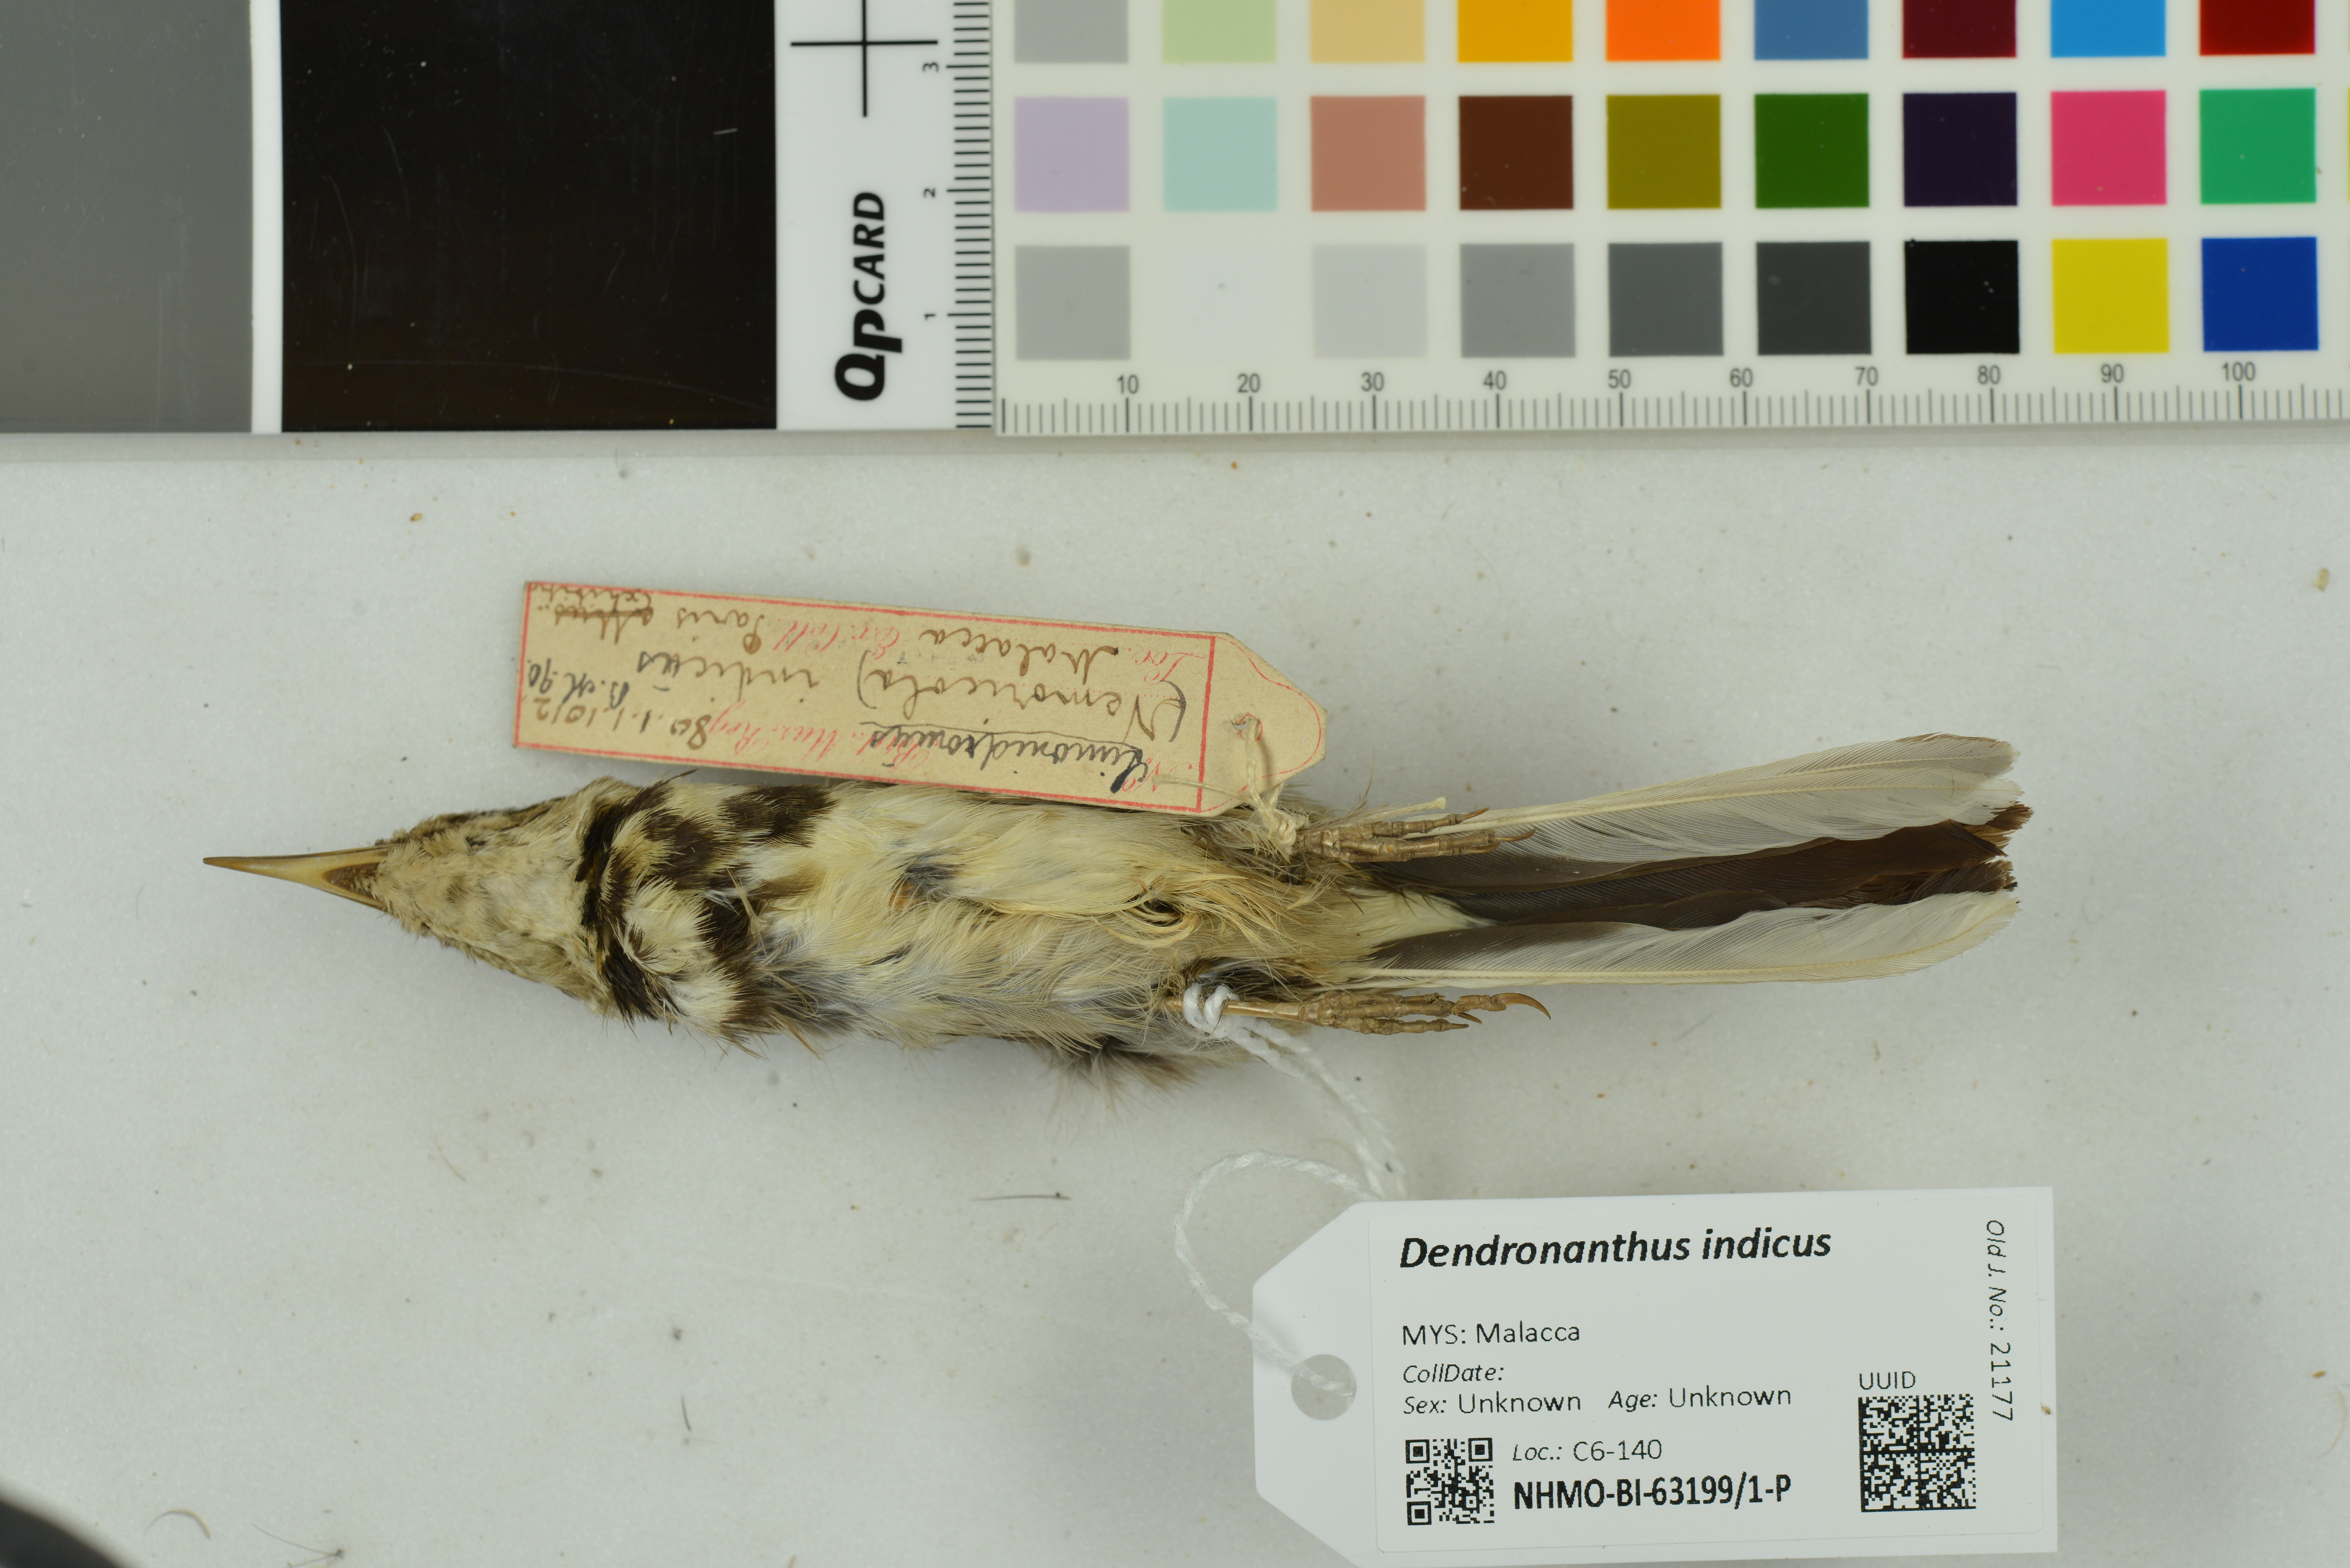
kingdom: Animalia
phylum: Chordata
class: Aves
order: Passeriformes
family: Motacillidae
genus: Dendronanthus
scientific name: Dendronanthus indicus
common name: Forest wagtail
